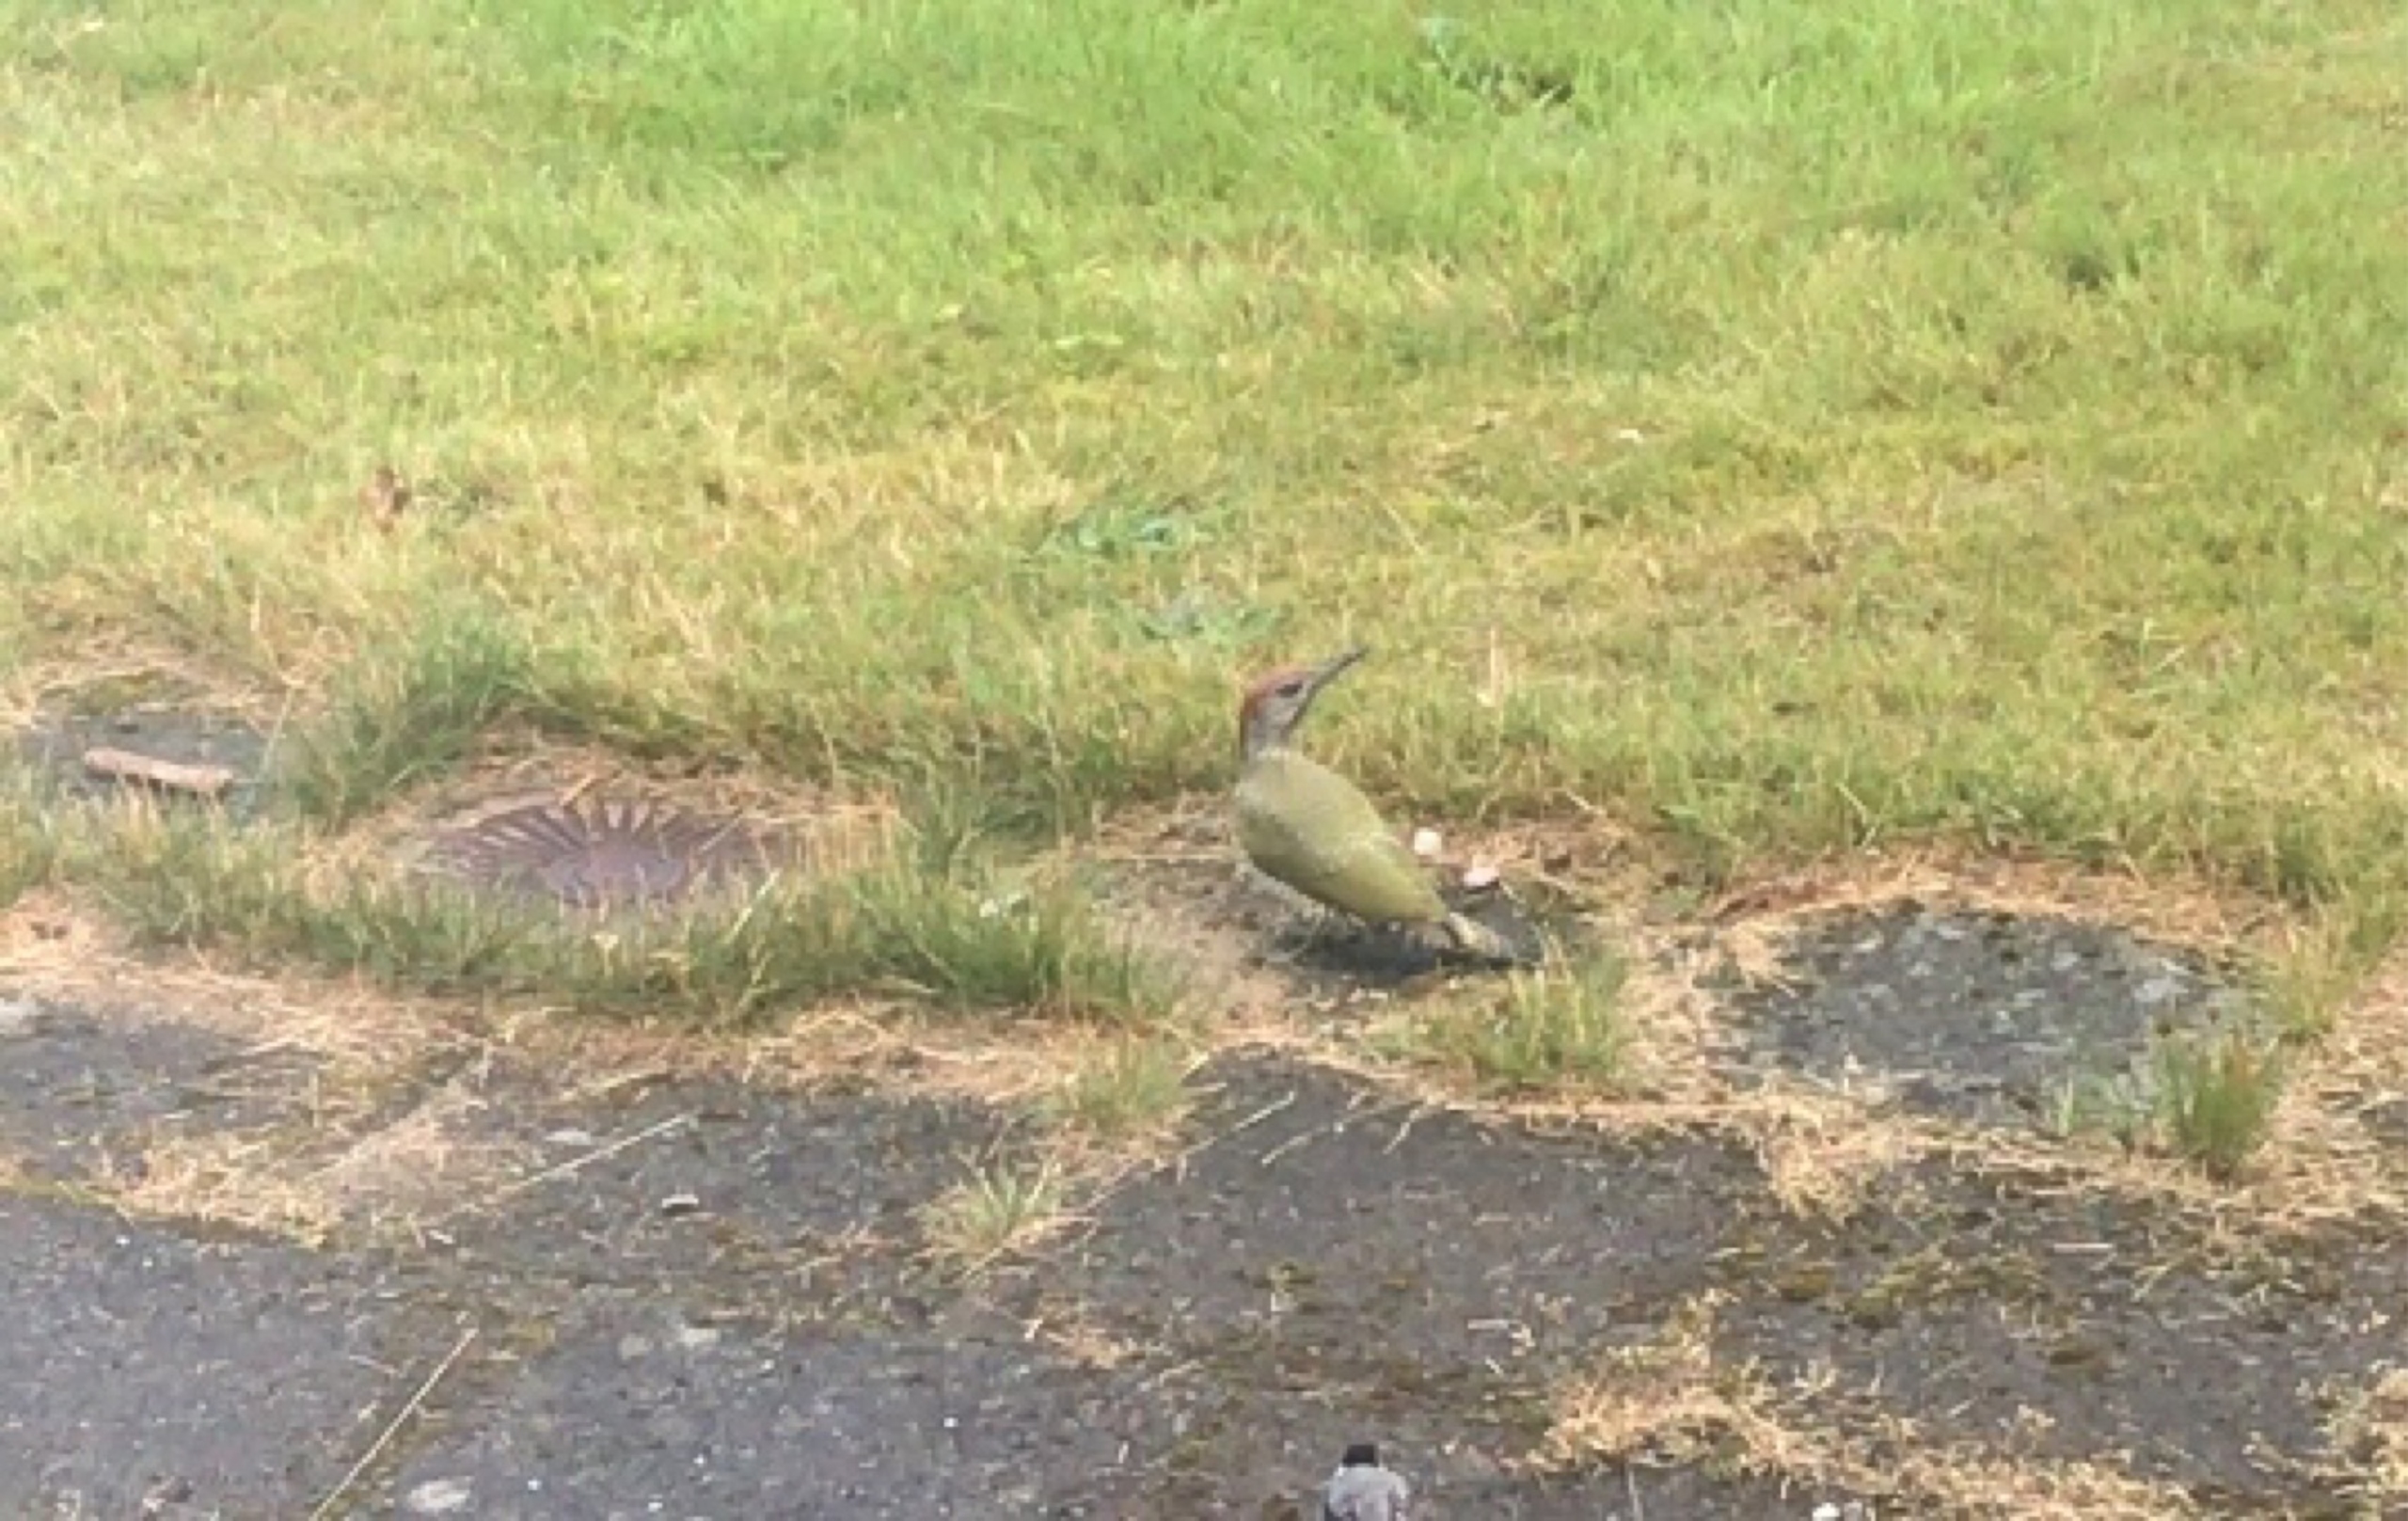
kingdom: Animalia
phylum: Chordata
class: Aves
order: Piciformes
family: Picidae
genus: Picus
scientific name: Picus viridis
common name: Grønspætte
